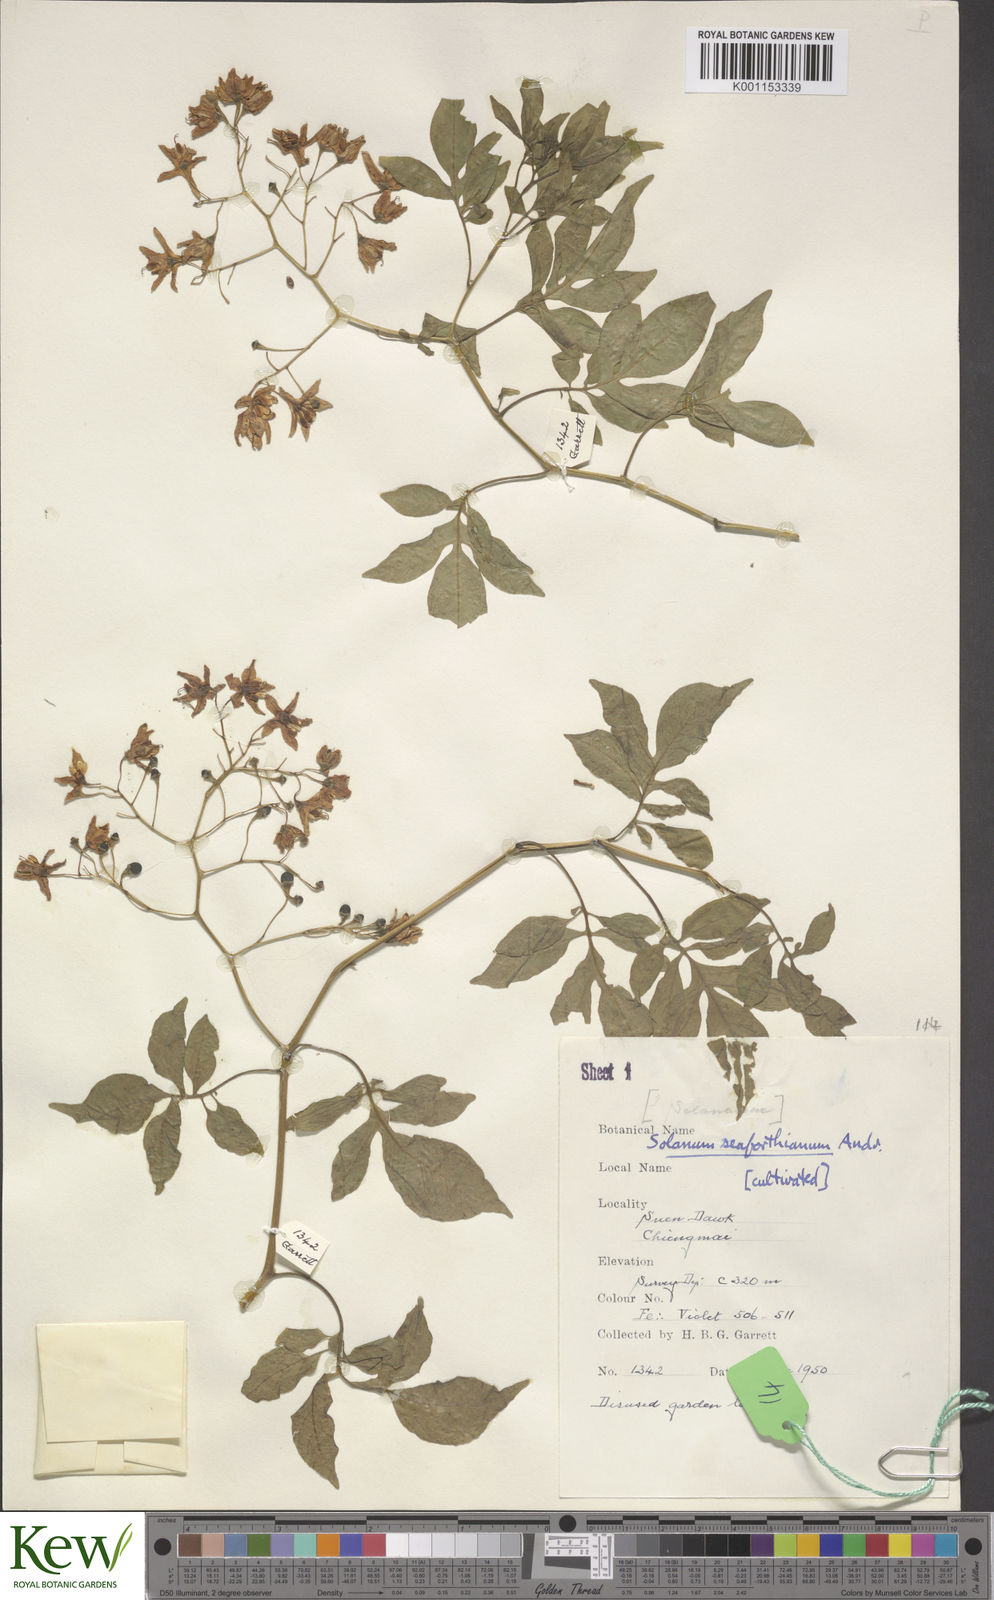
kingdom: Plantae
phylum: Tracheophyta
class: Magnoliopsida
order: Solanales
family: Solanaceae
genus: Solanum
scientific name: Solanum seaforthianum
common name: Brazilian nightshade
